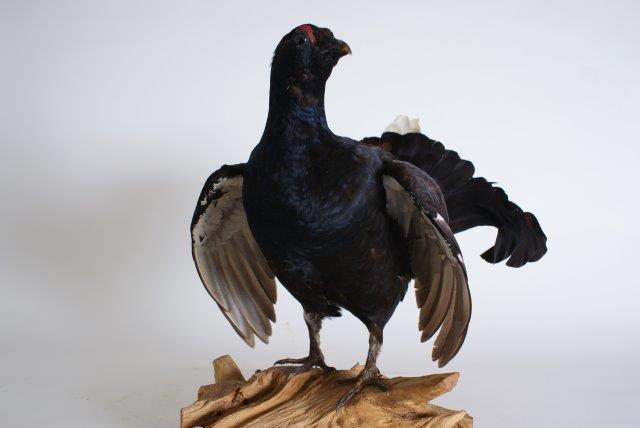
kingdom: Animalia
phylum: Chordata
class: Aves
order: Galliformes
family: Phasianidae
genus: Lyrurus
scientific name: Lyrurus tetrix
